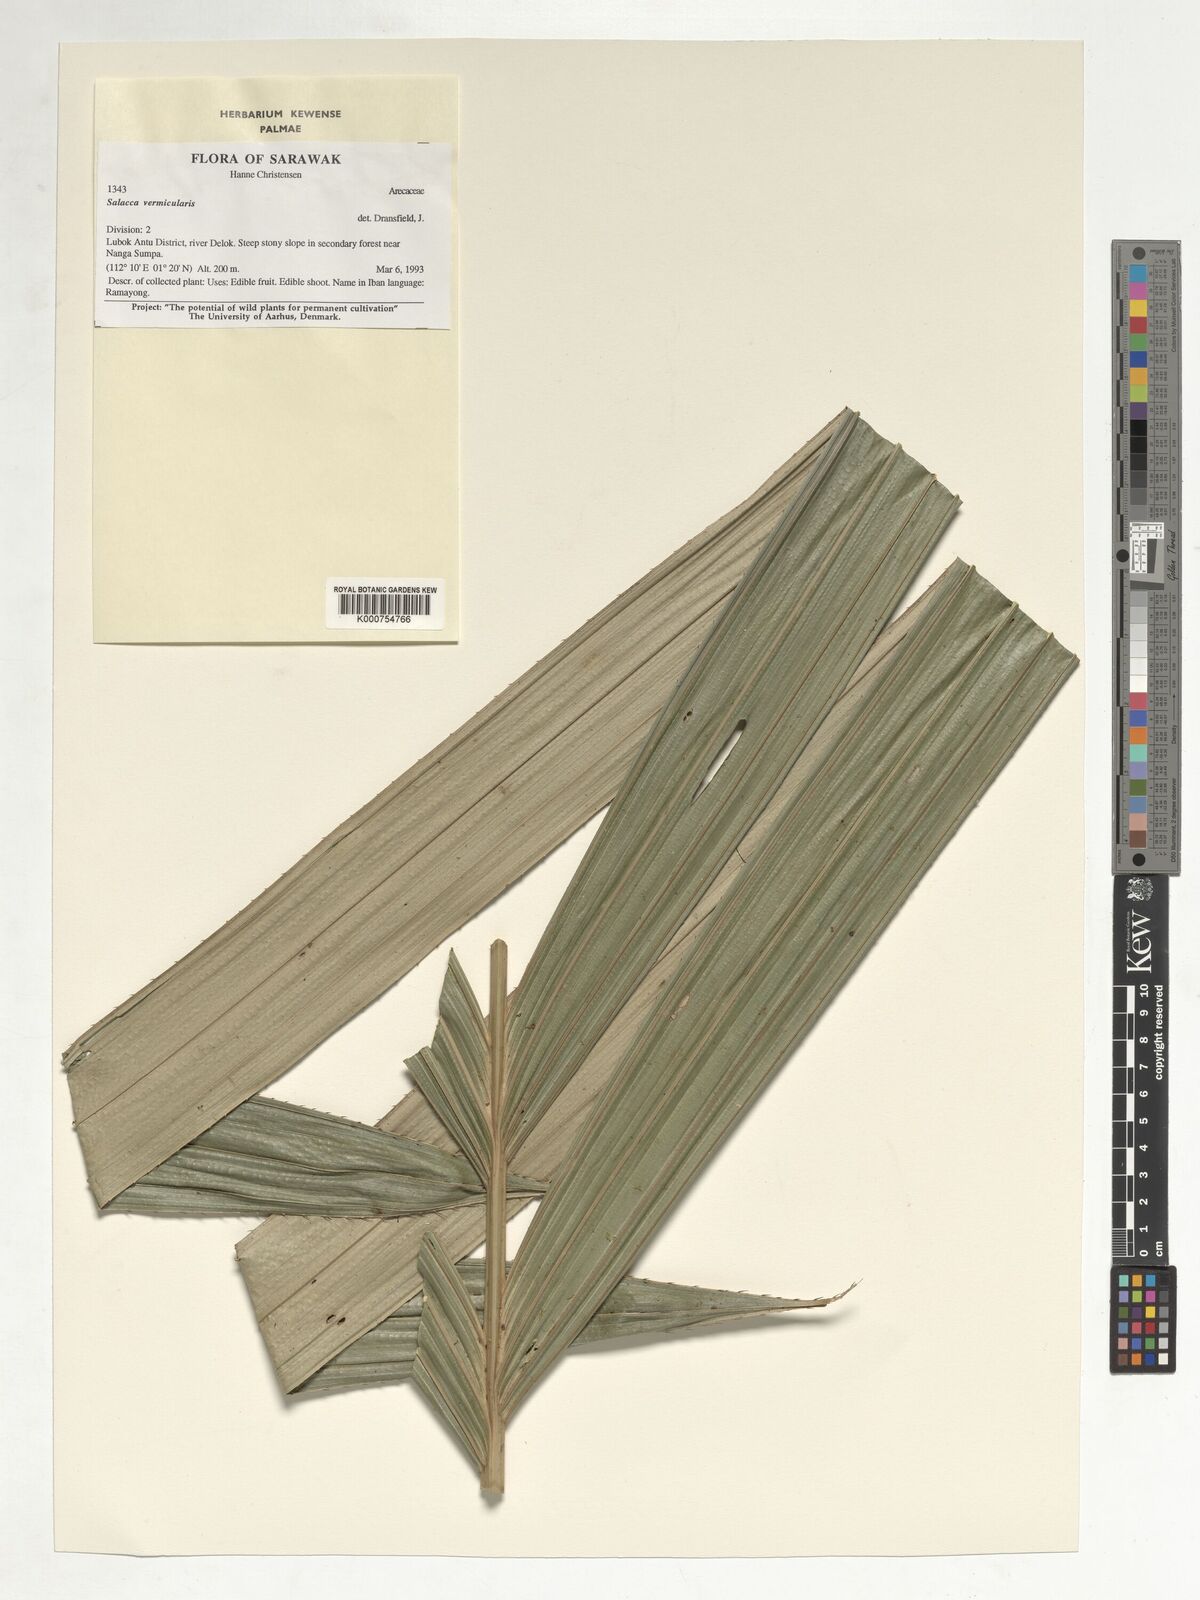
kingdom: Plantae
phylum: Tracheophyta
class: Liliopsida
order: Arecales
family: Arecaceae
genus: Salacca
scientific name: Salacca vermicularis
